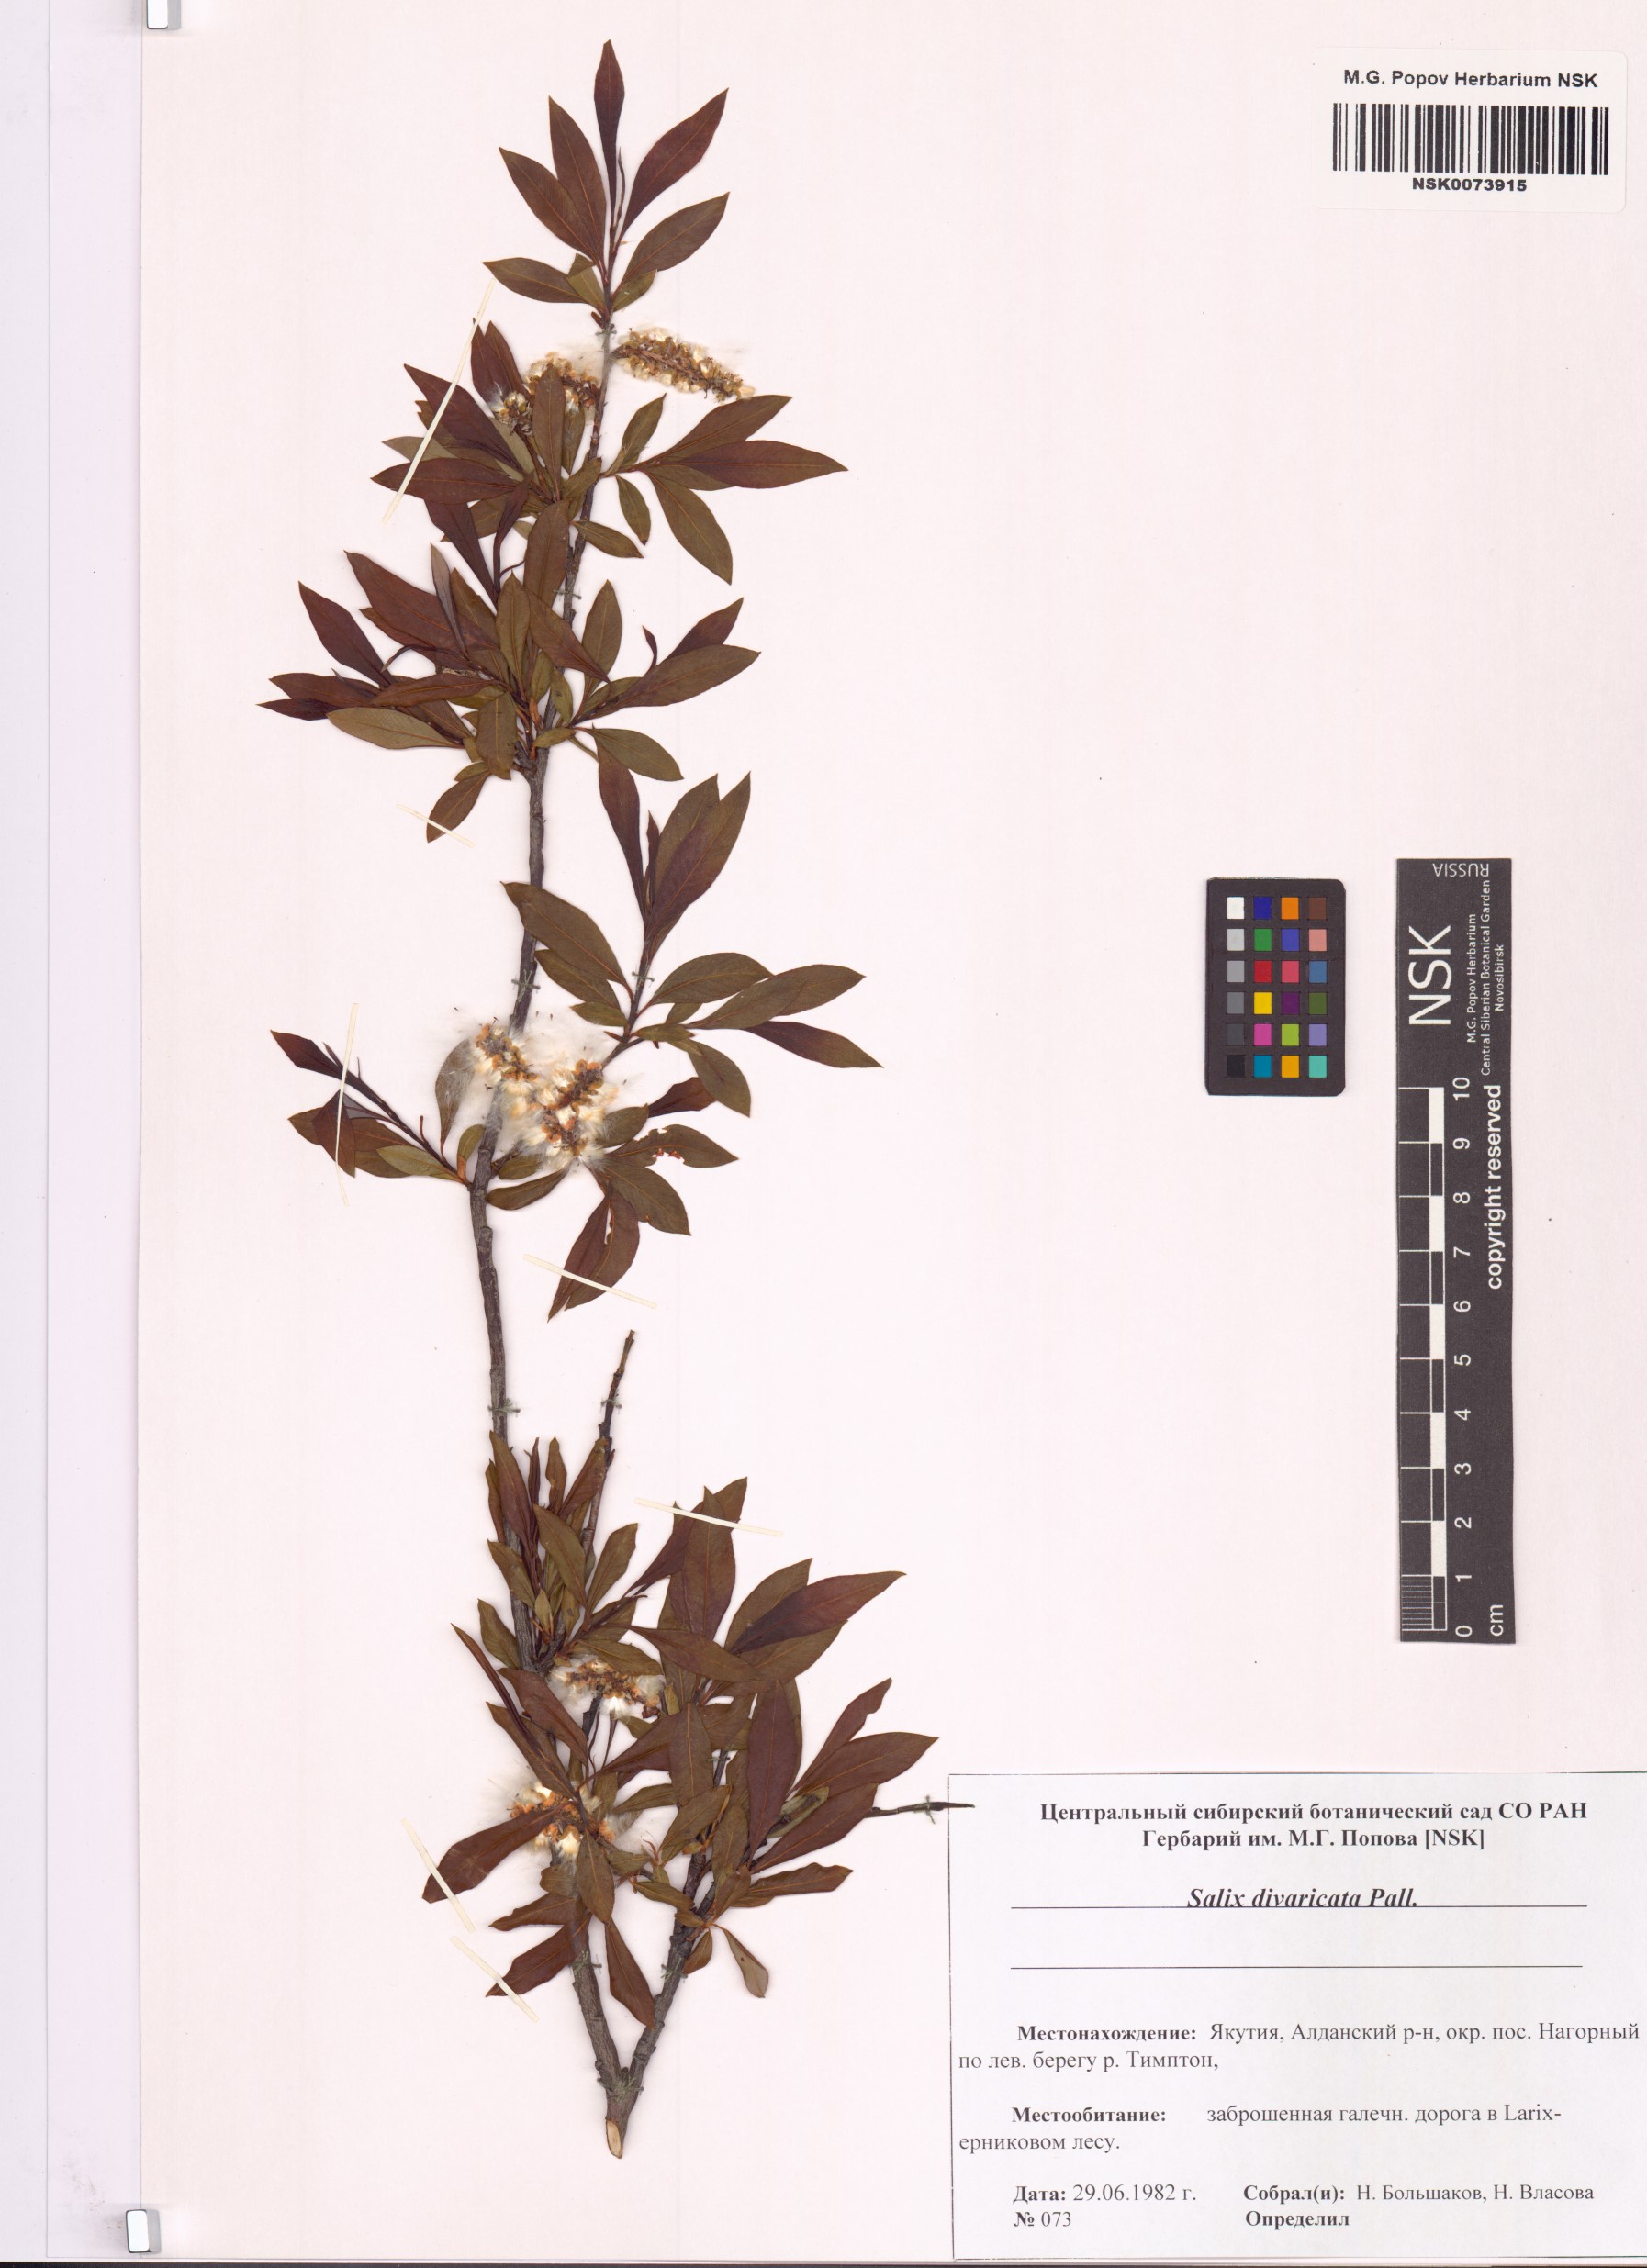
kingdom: Plantae
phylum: Tracheophyta
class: Magnoliopsida
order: Malpighiales
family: Salicaceae
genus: Salix
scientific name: Salix divaricata
